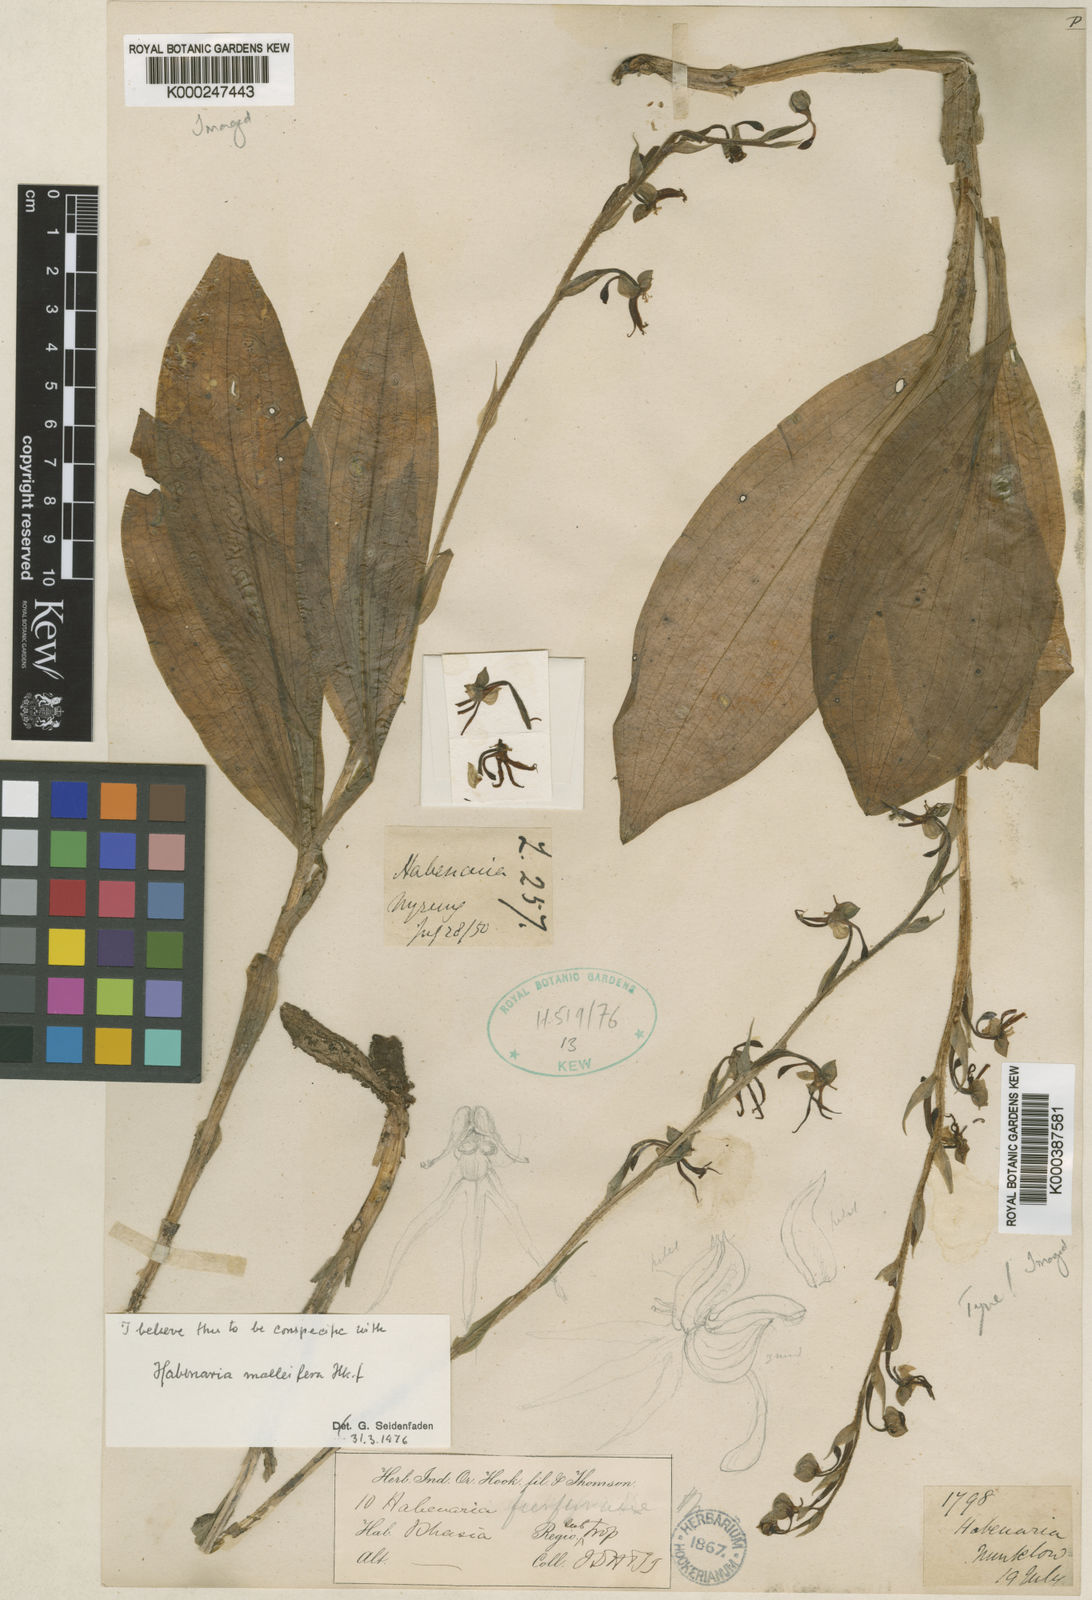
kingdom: Plantae
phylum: Tracheophyta
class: Liliopsida
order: Asparagales
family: Orchidaceae
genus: Habenaria
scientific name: Habenaria malleifera
